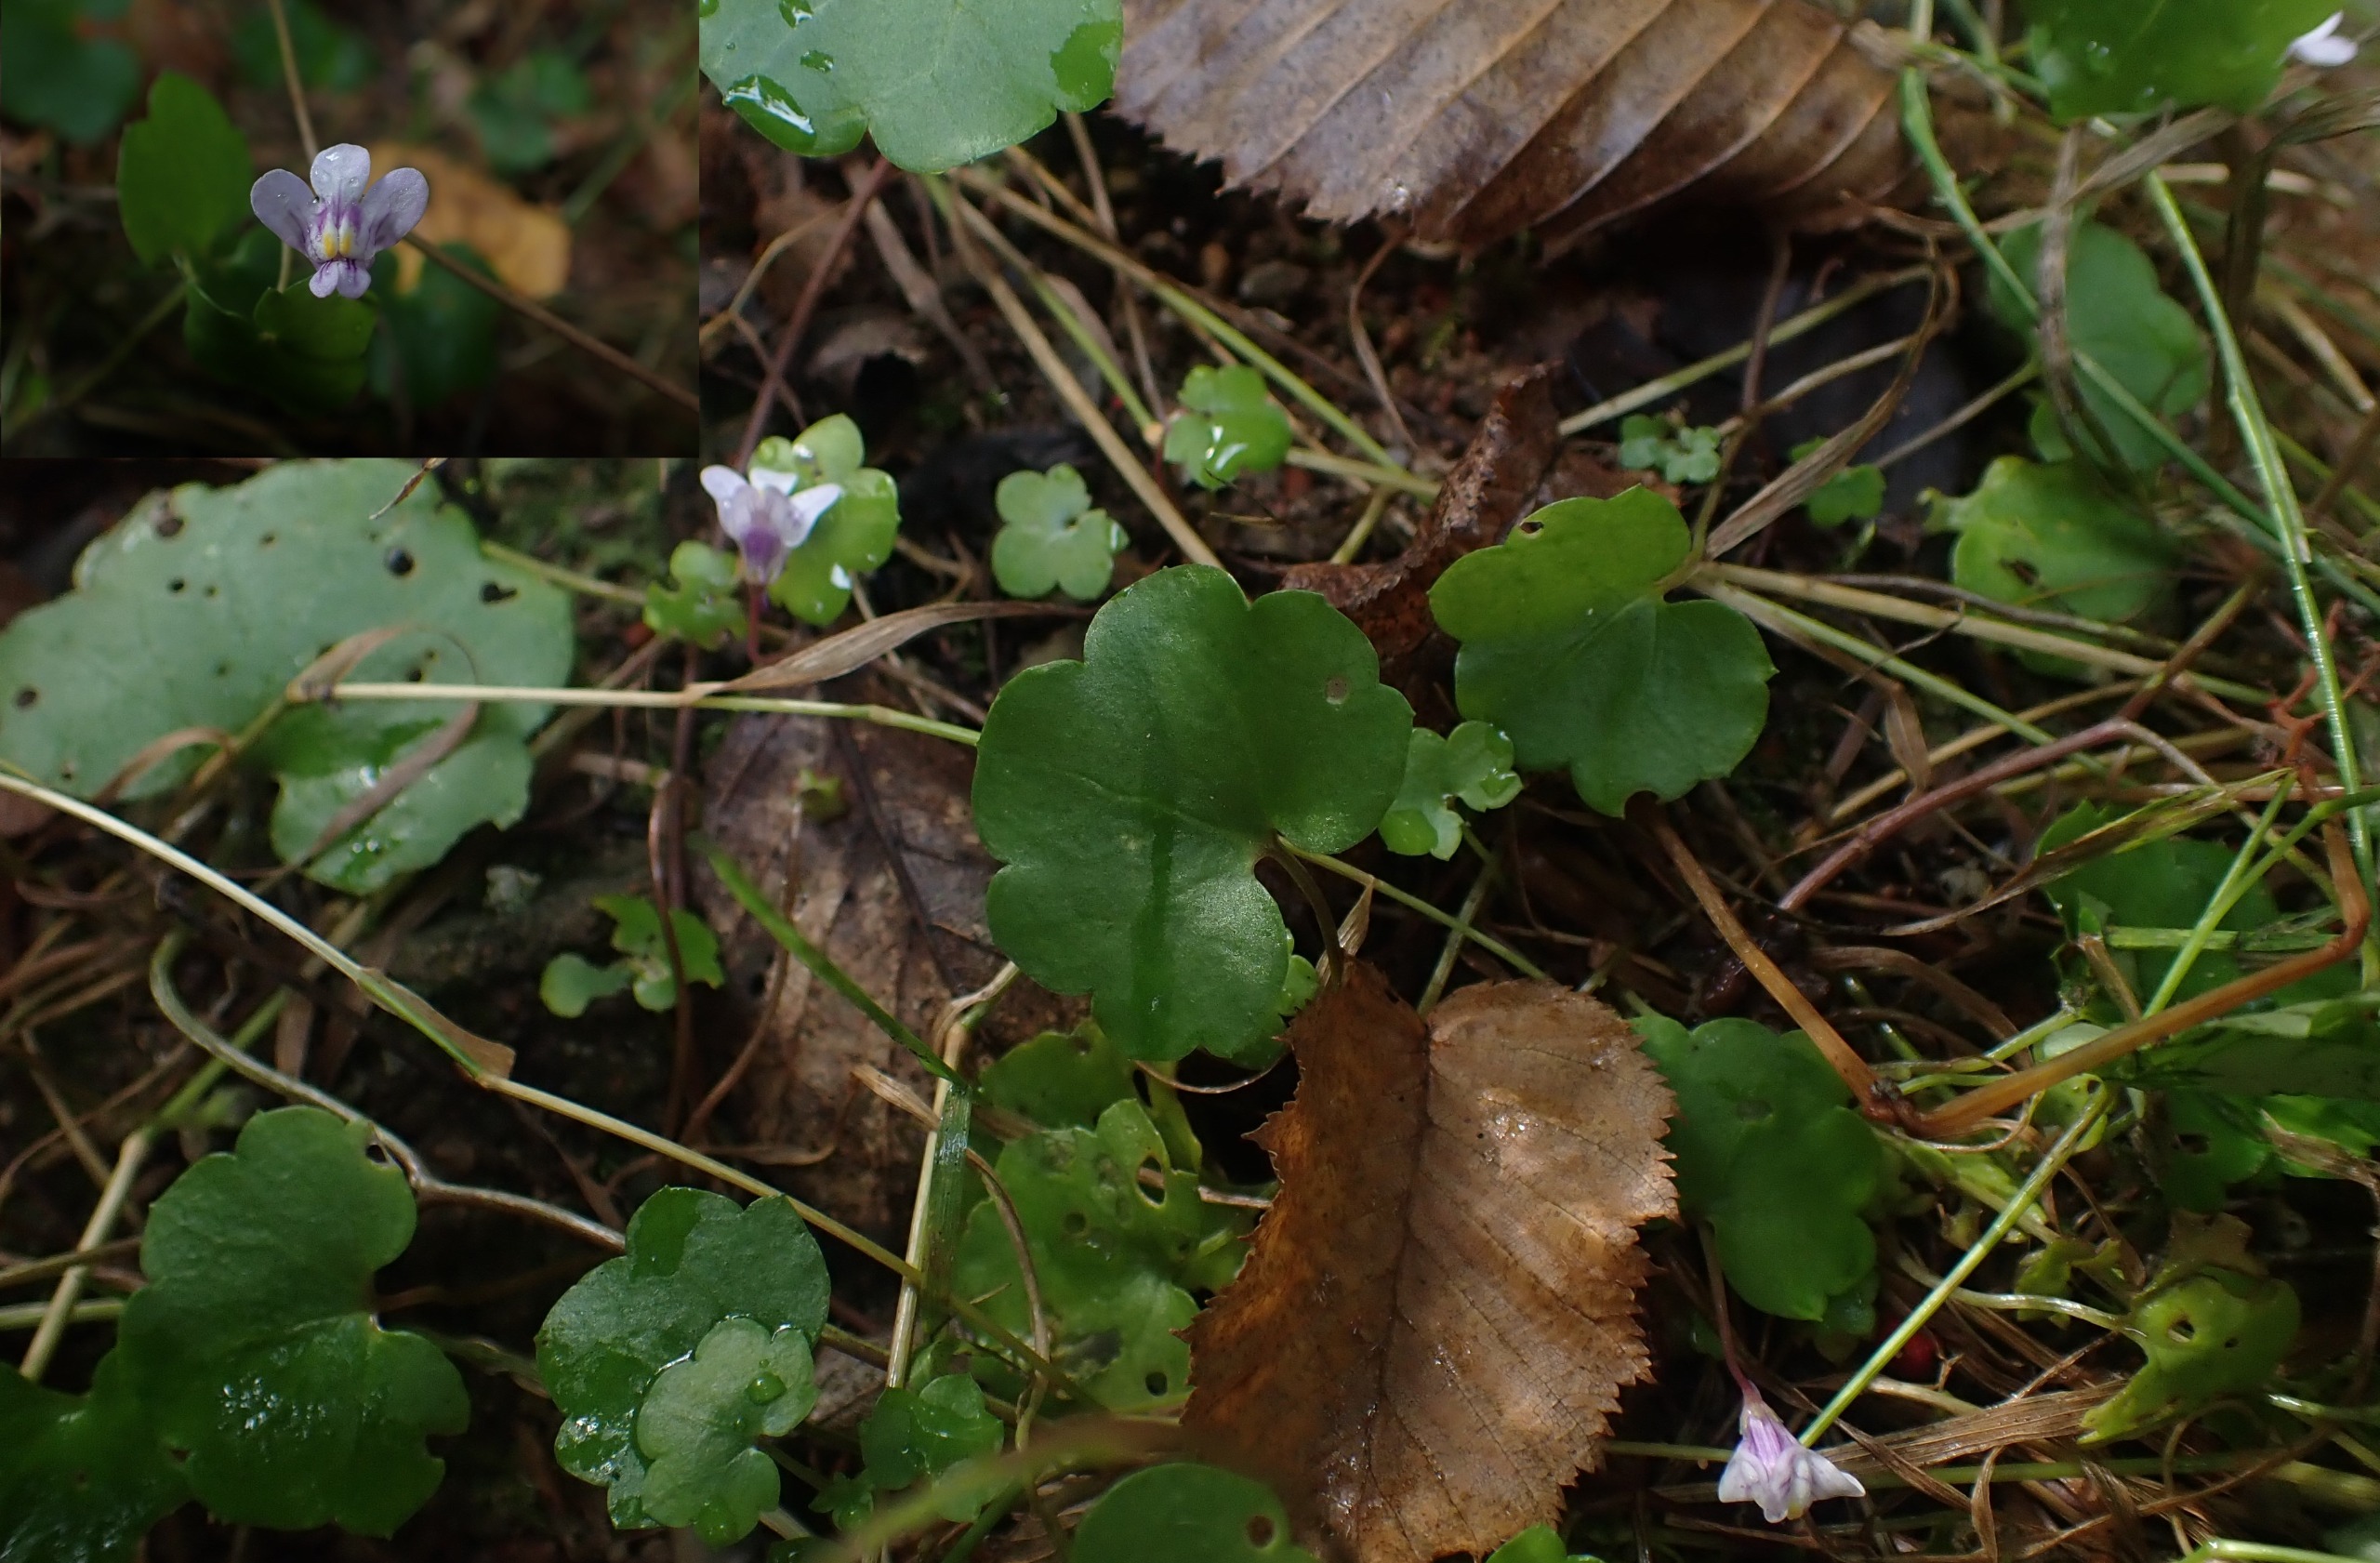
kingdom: Plantae
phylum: Tracheophyta
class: Magnoliopsida
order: Lamiales
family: Plantaginaceae
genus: Cymbalaria
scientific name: Cymbalaria muralis
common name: Vedbend-torskemund
